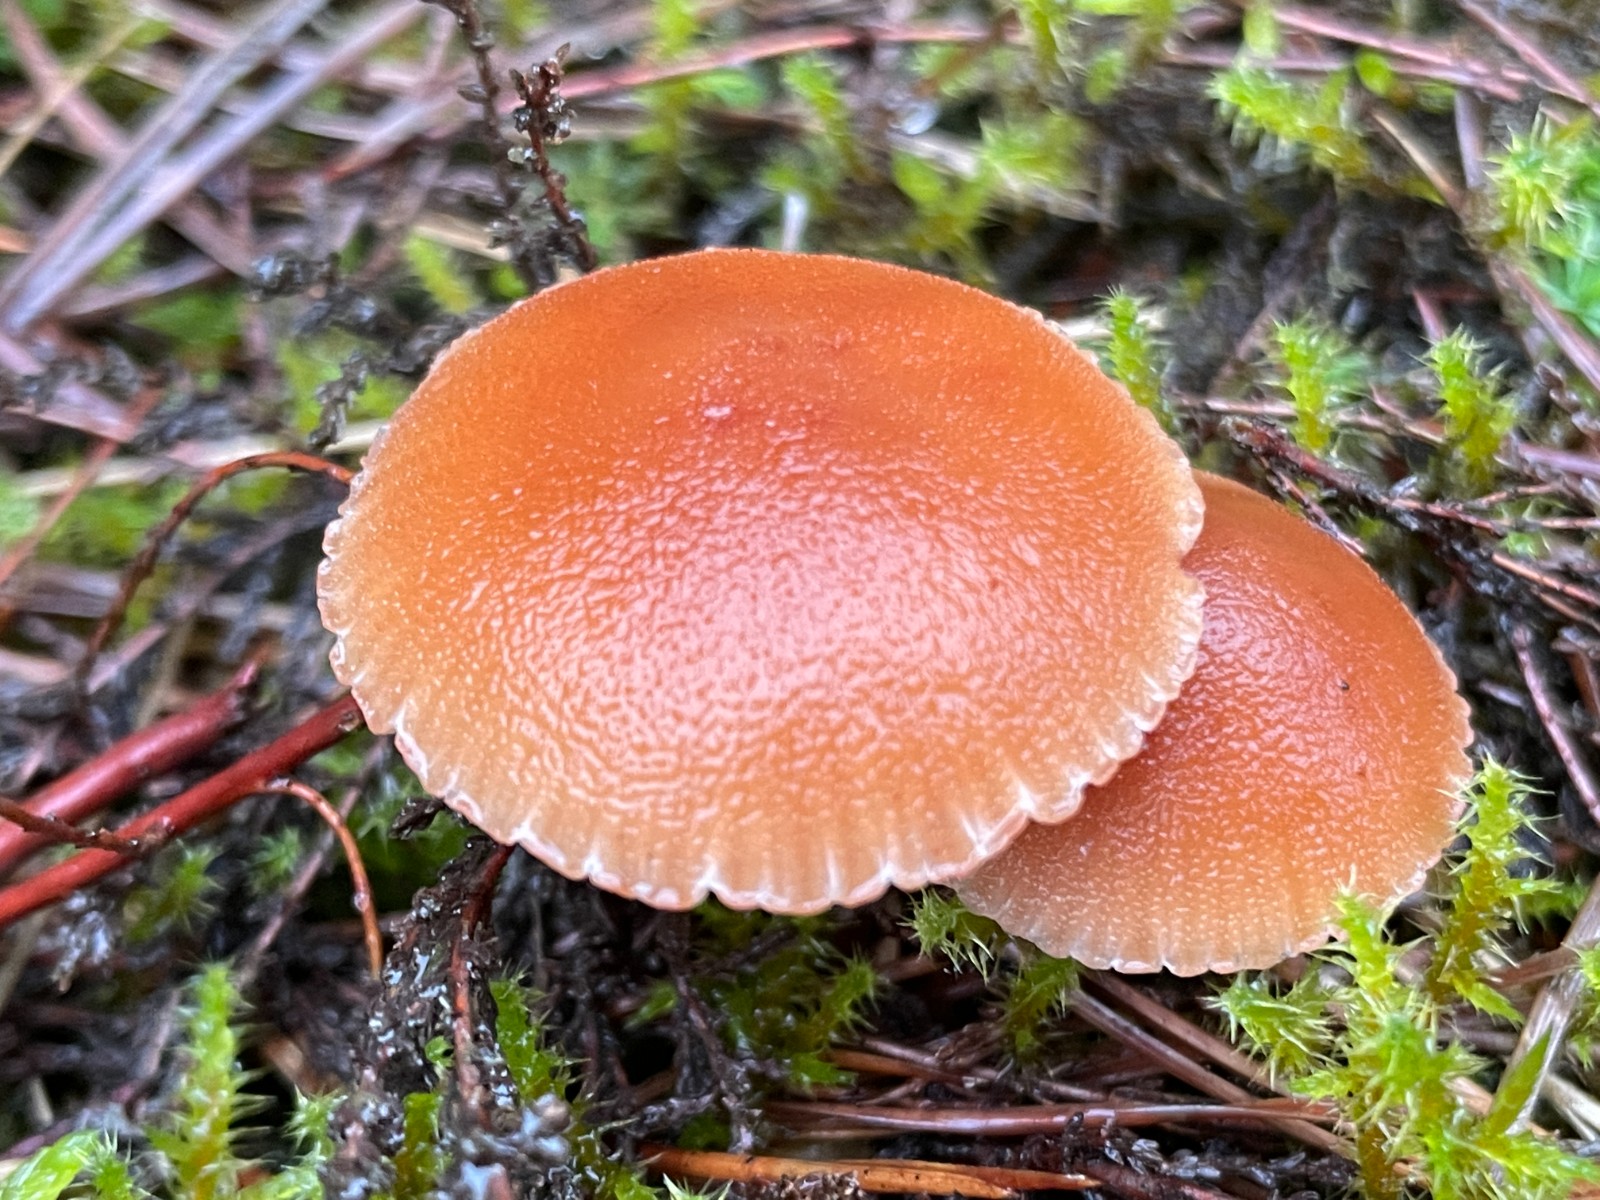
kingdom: Fungi
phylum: Basidiomycota
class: Agaricomycetes
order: Agaricales
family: Hydnangiaceae
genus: Laccaria
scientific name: Laccaria bicolor
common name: tvefarvet ametysthat
